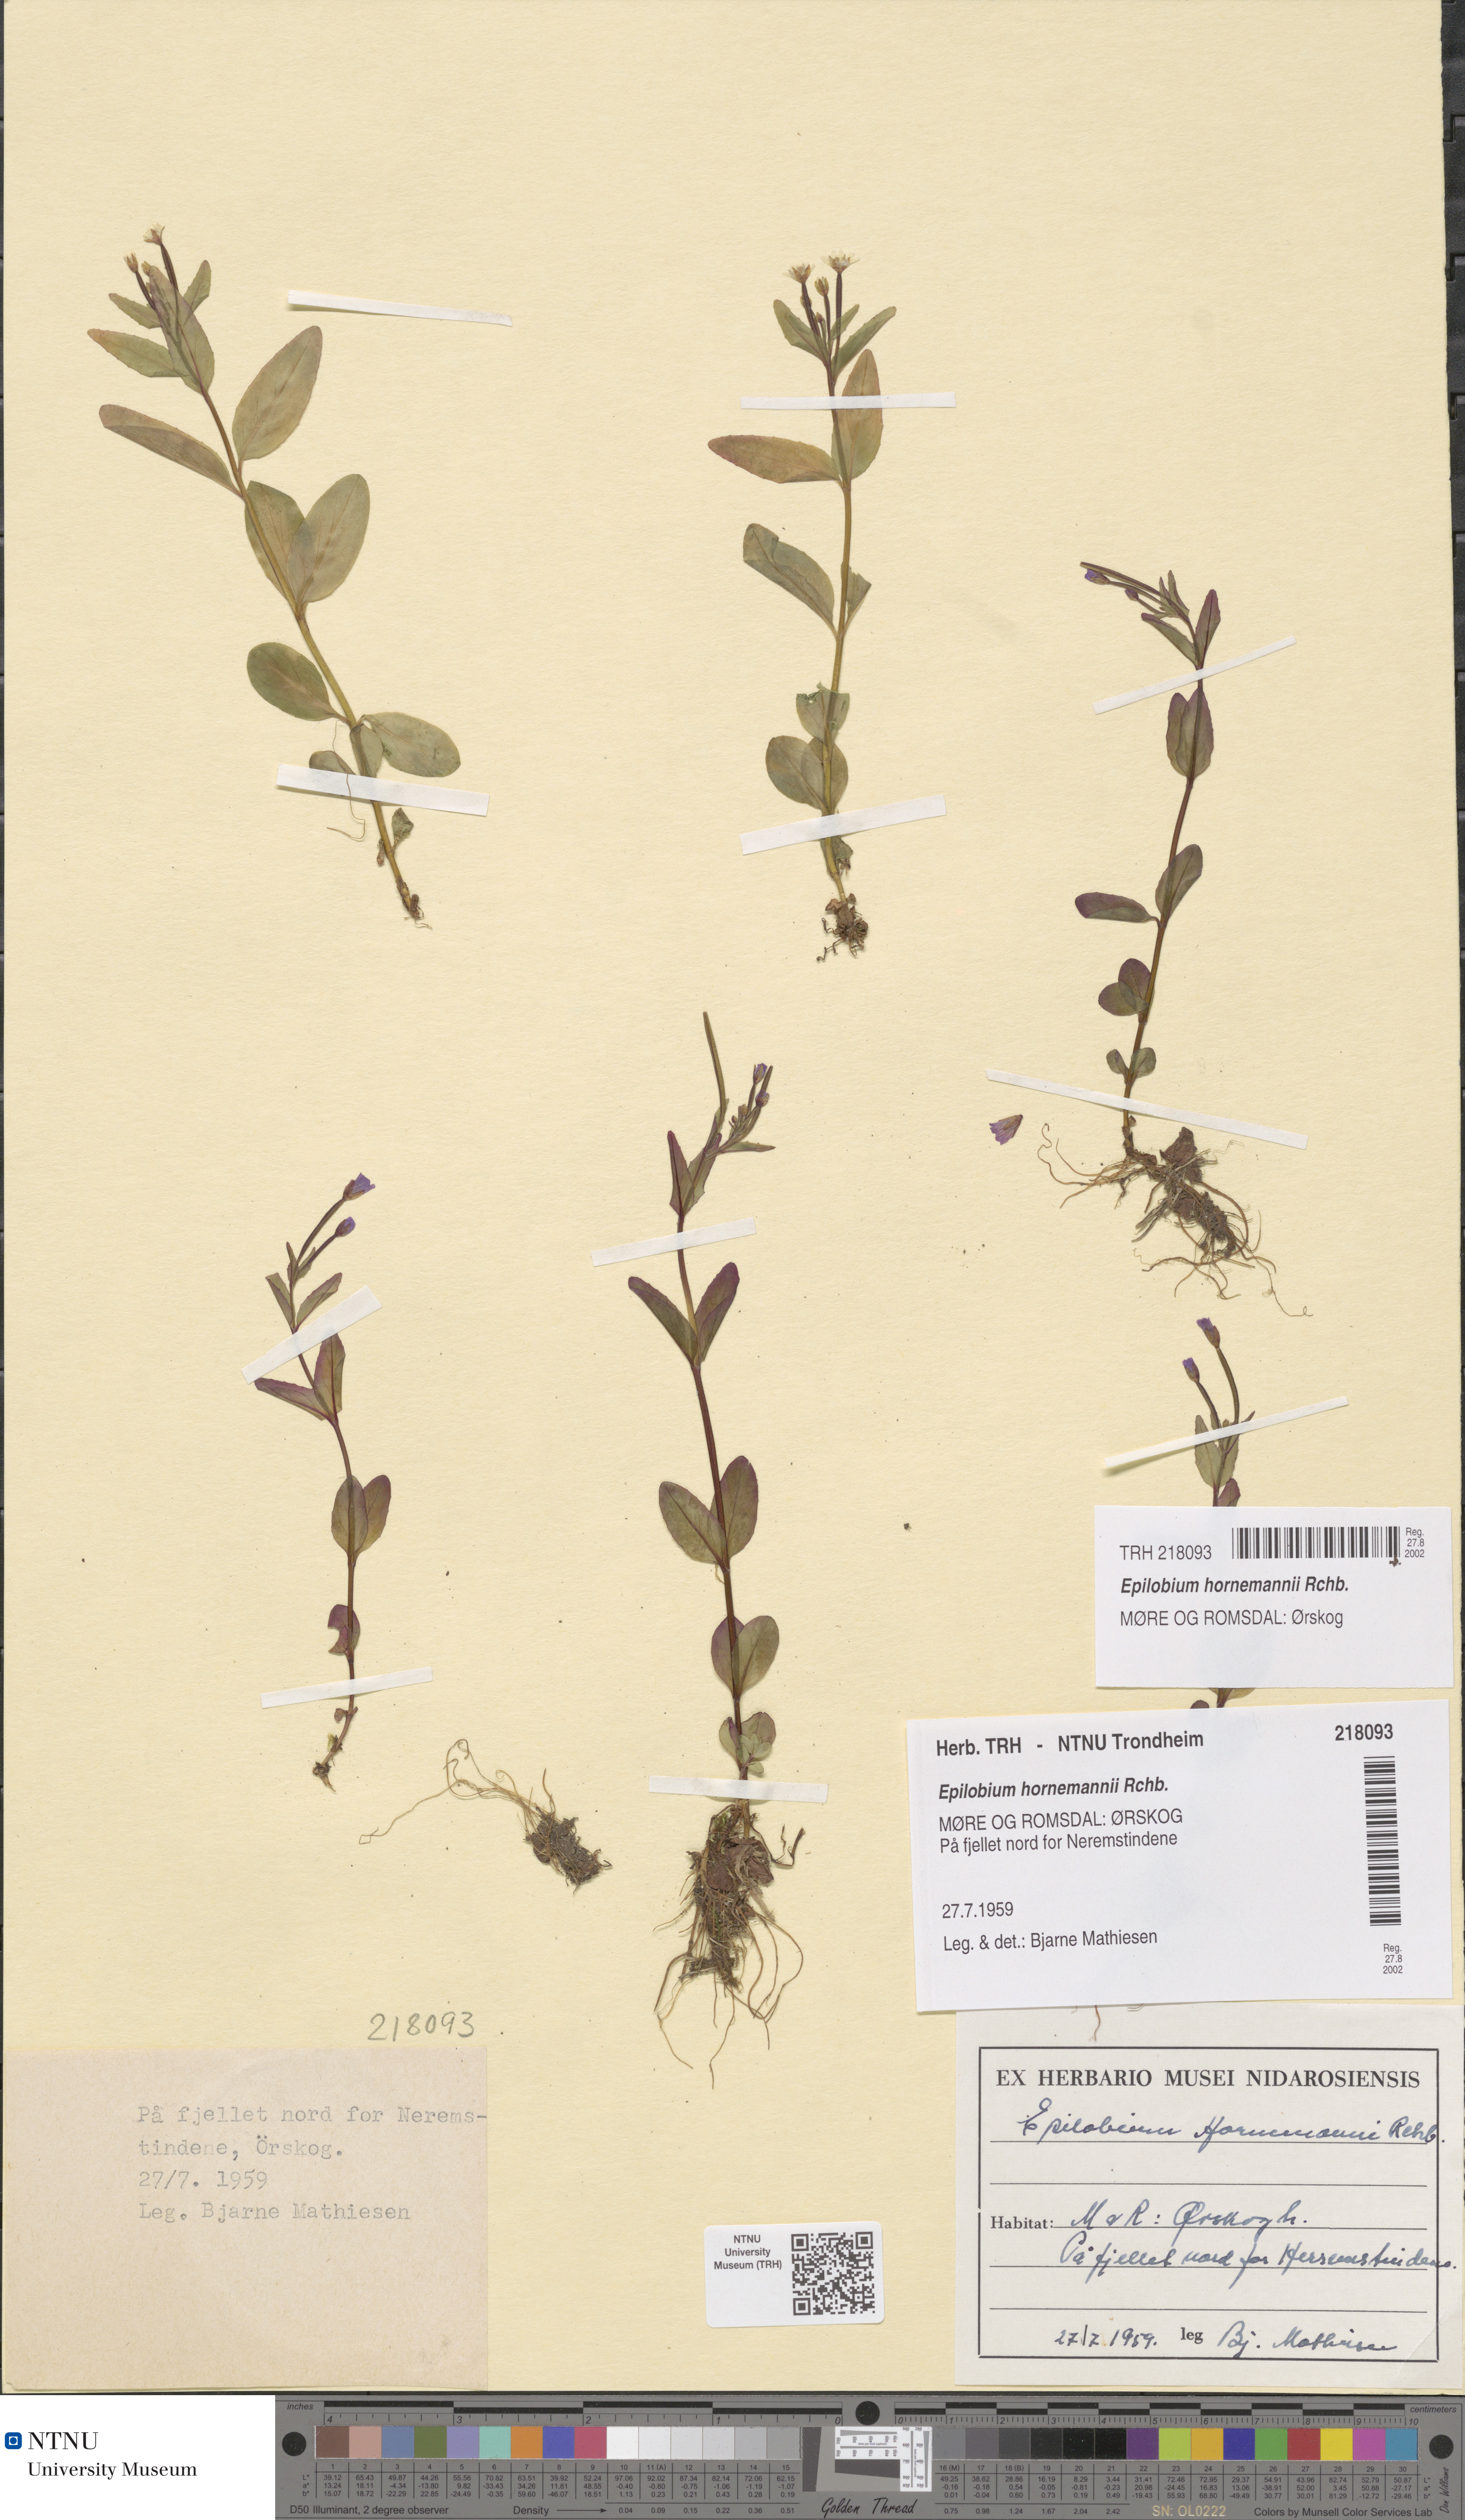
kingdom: Plantae
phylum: Tracheophyta
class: Magnoliopsida
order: Myrtales
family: Onagraceae
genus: Epilobium
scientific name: Epilobium hornemannii
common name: Hornemann's willowherb
